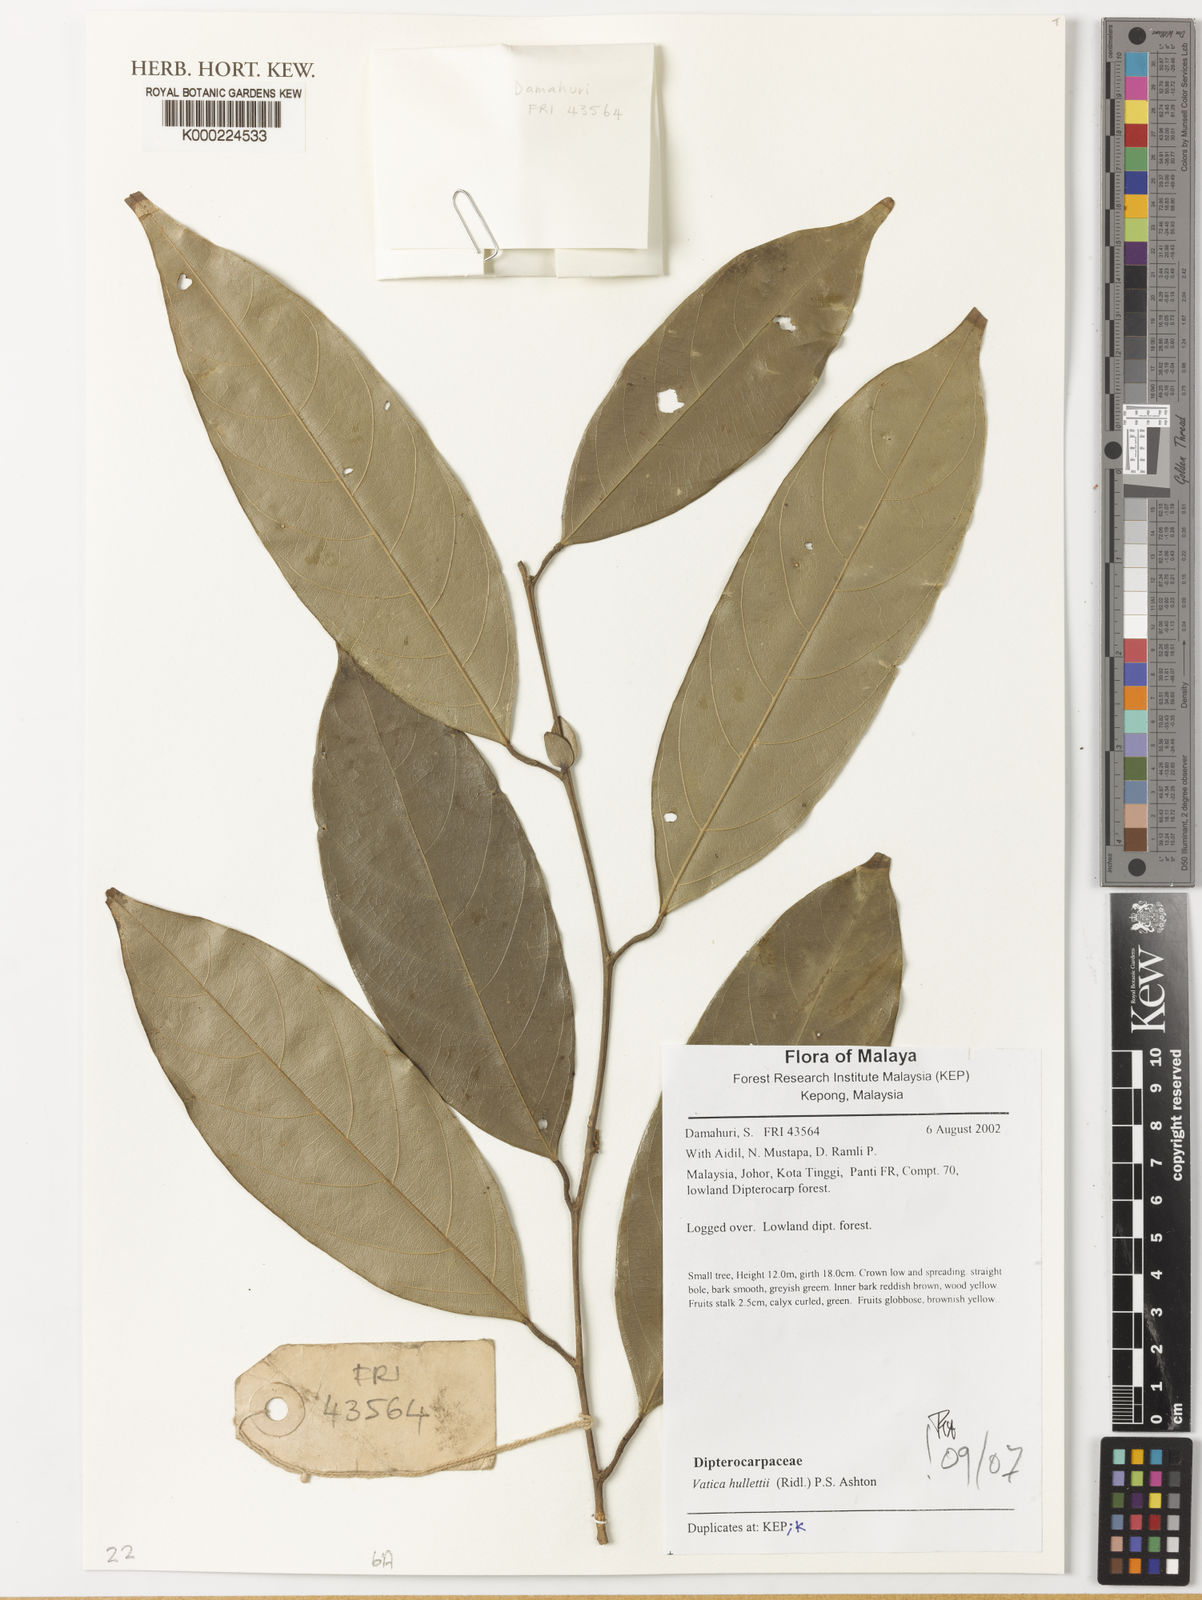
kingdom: Plantae
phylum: Tracheophyta
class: Magnoliopsida
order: Malvales
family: Dipterocarpaceae
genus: Vatica
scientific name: Vatica
